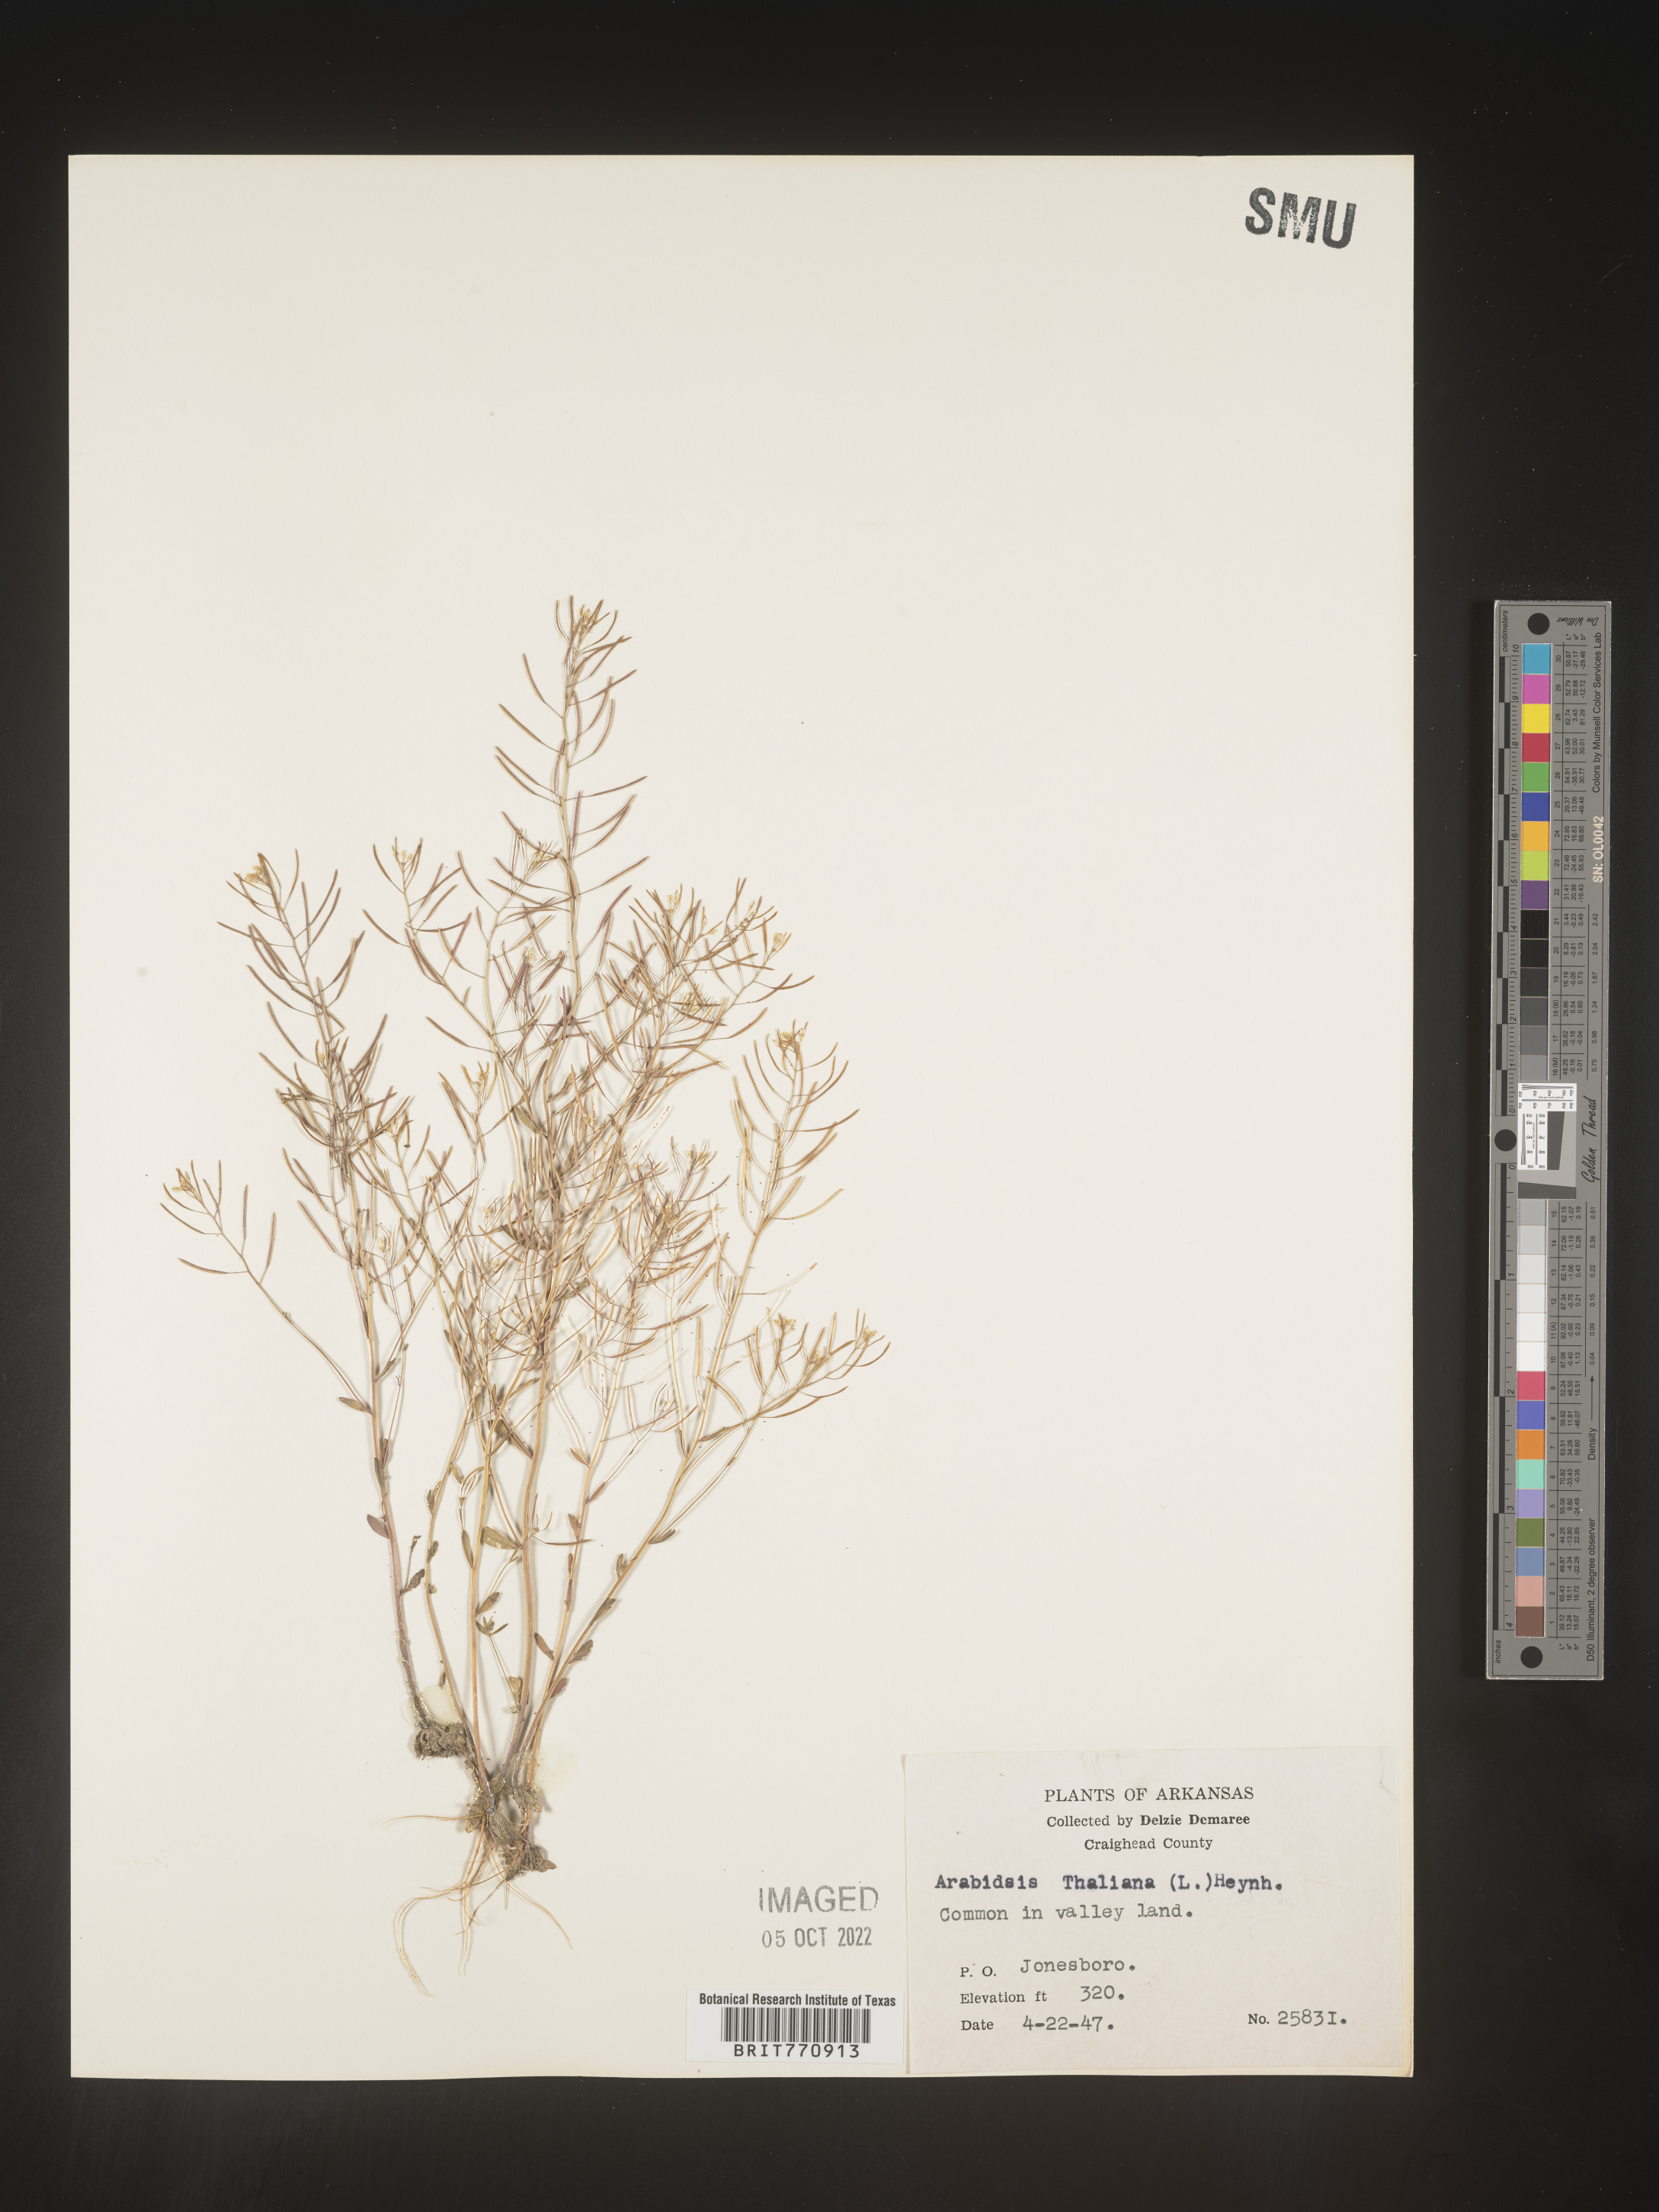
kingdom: Plantae
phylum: Tracheophyta
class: Magnoliopsida
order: Brassicales
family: Brassicaceae
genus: Arabidopsis
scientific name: Arabidopsis thaliana
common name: Thale cress
